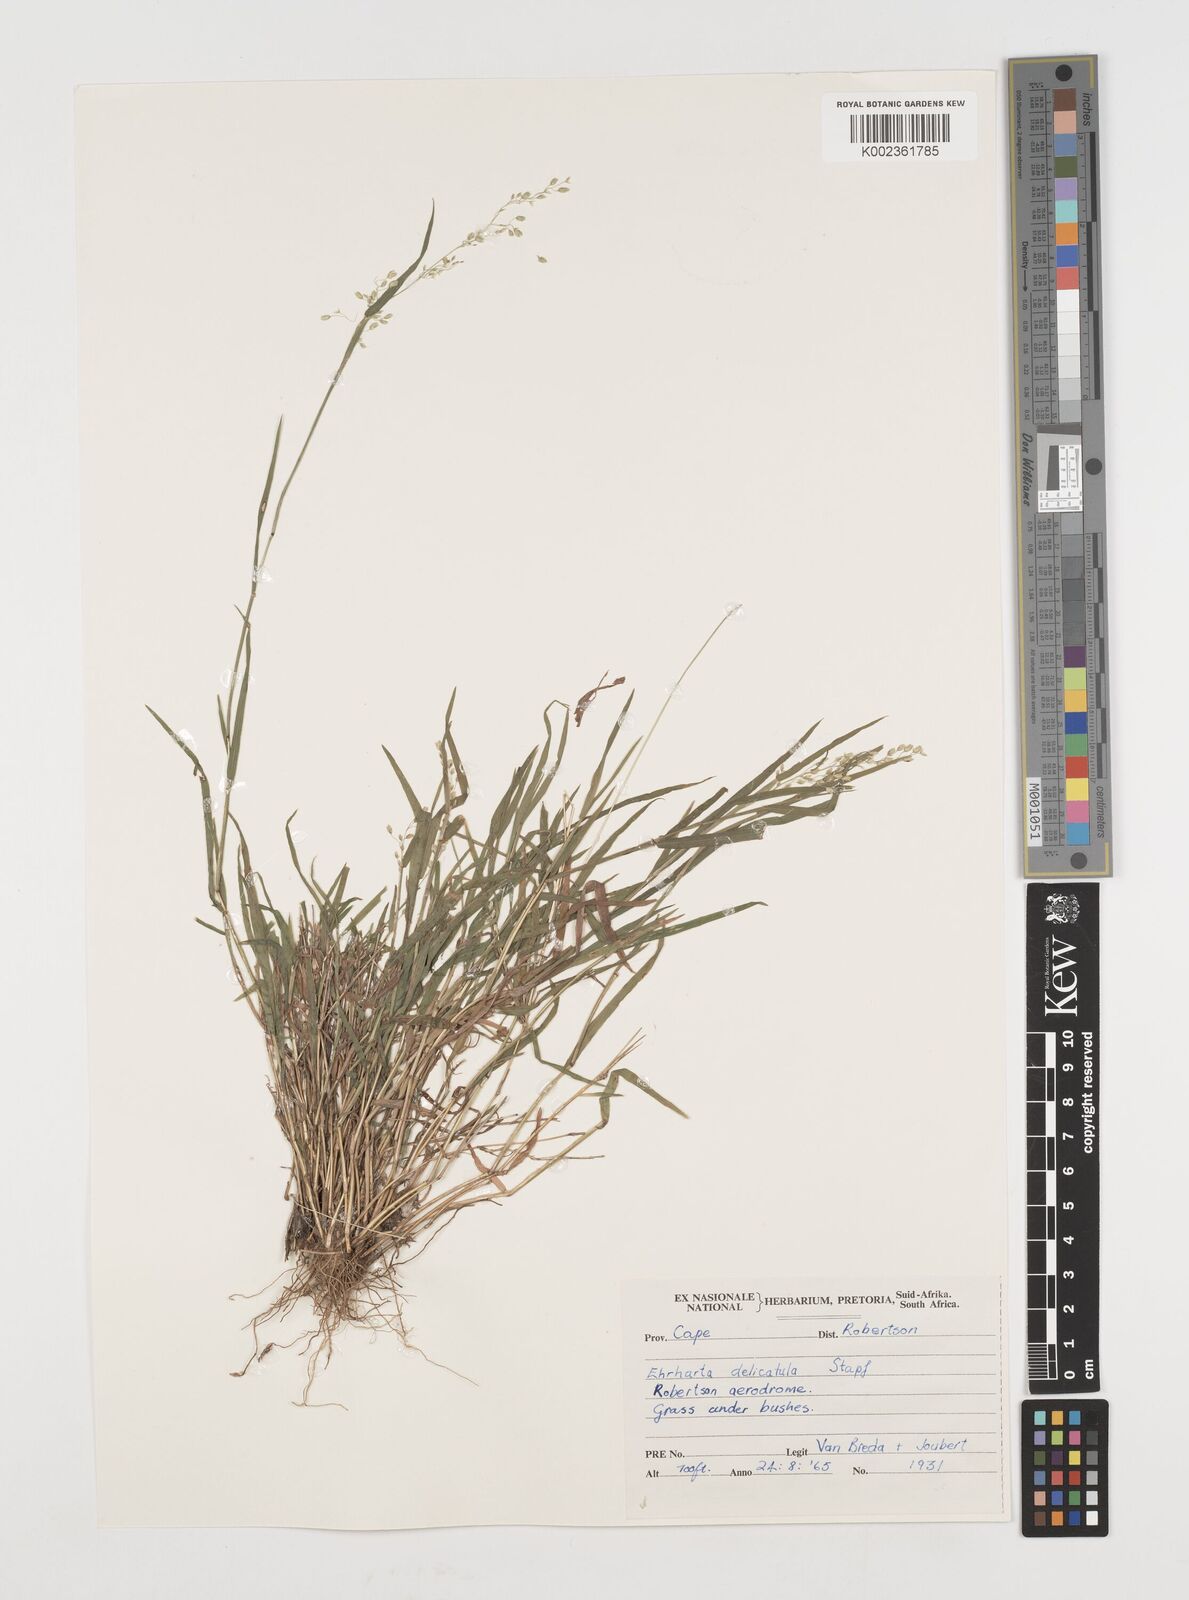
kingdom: Plantae
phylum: Tracheophyta
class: Liliopsida
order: Poales
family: Poaceae
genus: Ehrharta
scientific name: Ehrharta delicatula
